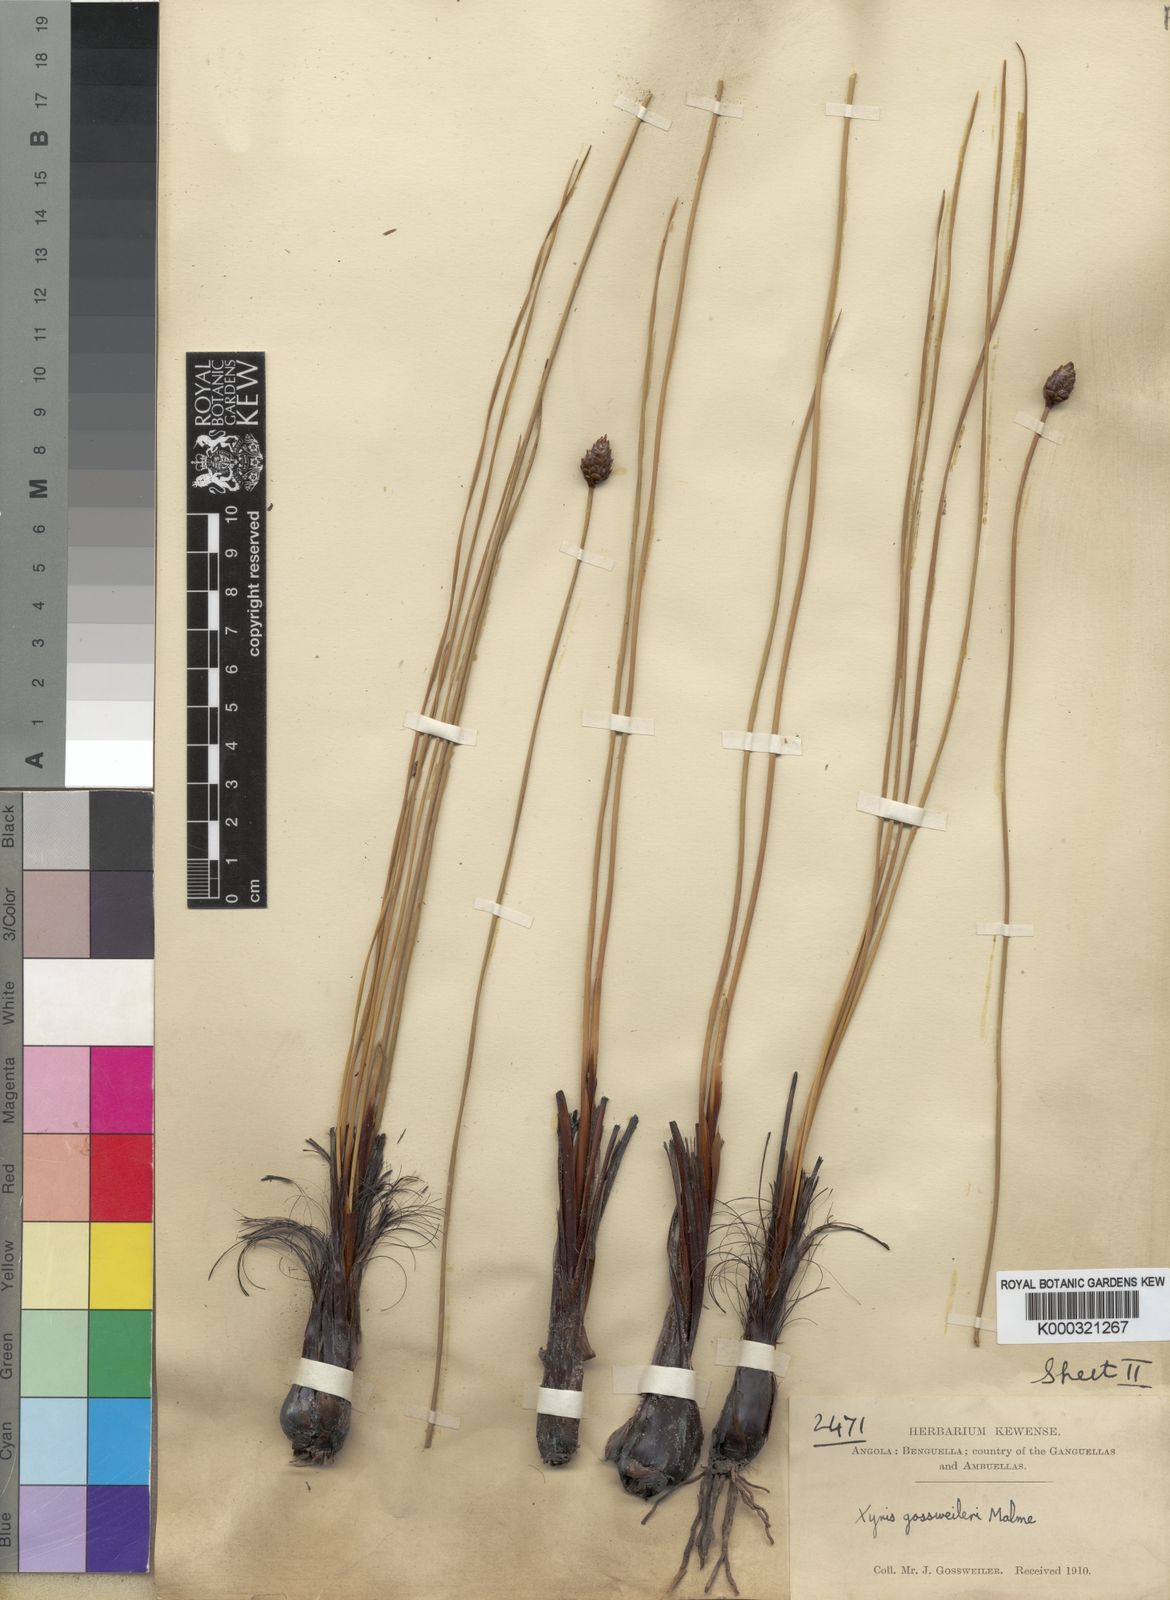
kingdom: Plantae
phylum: Tracheophyta
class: Liliopsida
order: Poales
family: Xyridaceae
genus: Xyris
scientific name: Xyris gossweileri
